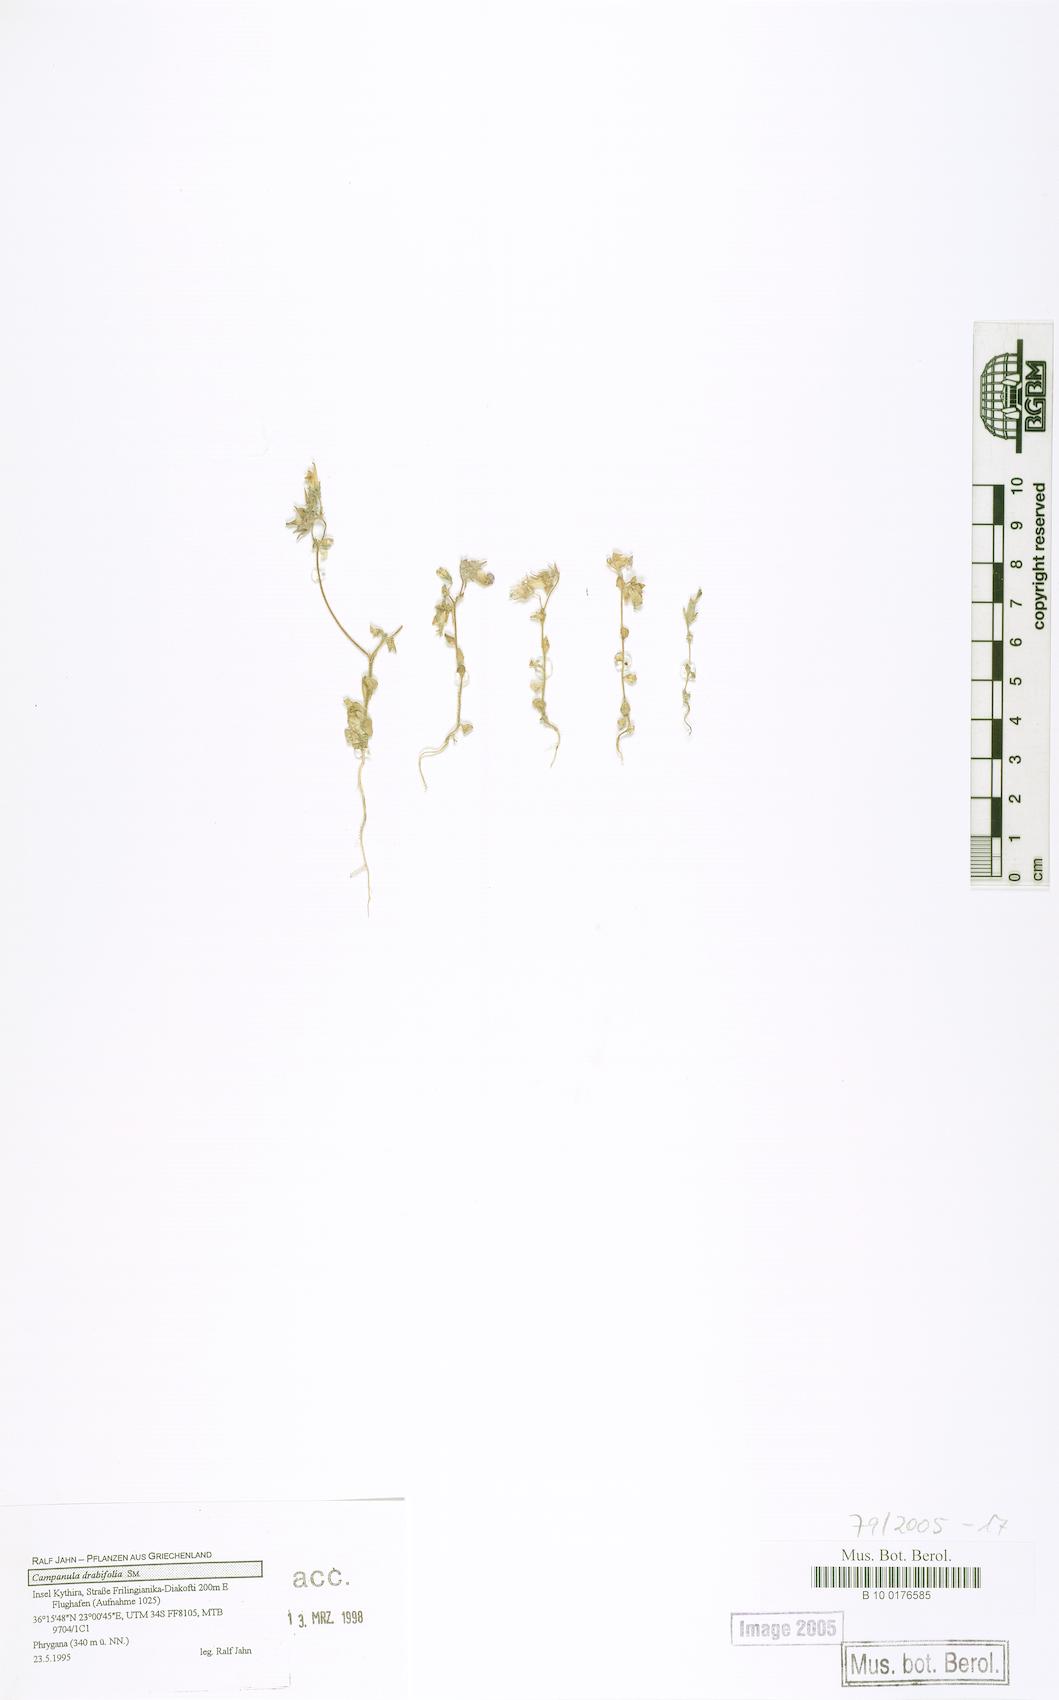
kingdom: Plantae
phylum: Tracheophyta
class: Magnoliopsida
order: Asterales
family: Campanulaceae
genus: Campanula
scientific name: Campanula drabifolia
